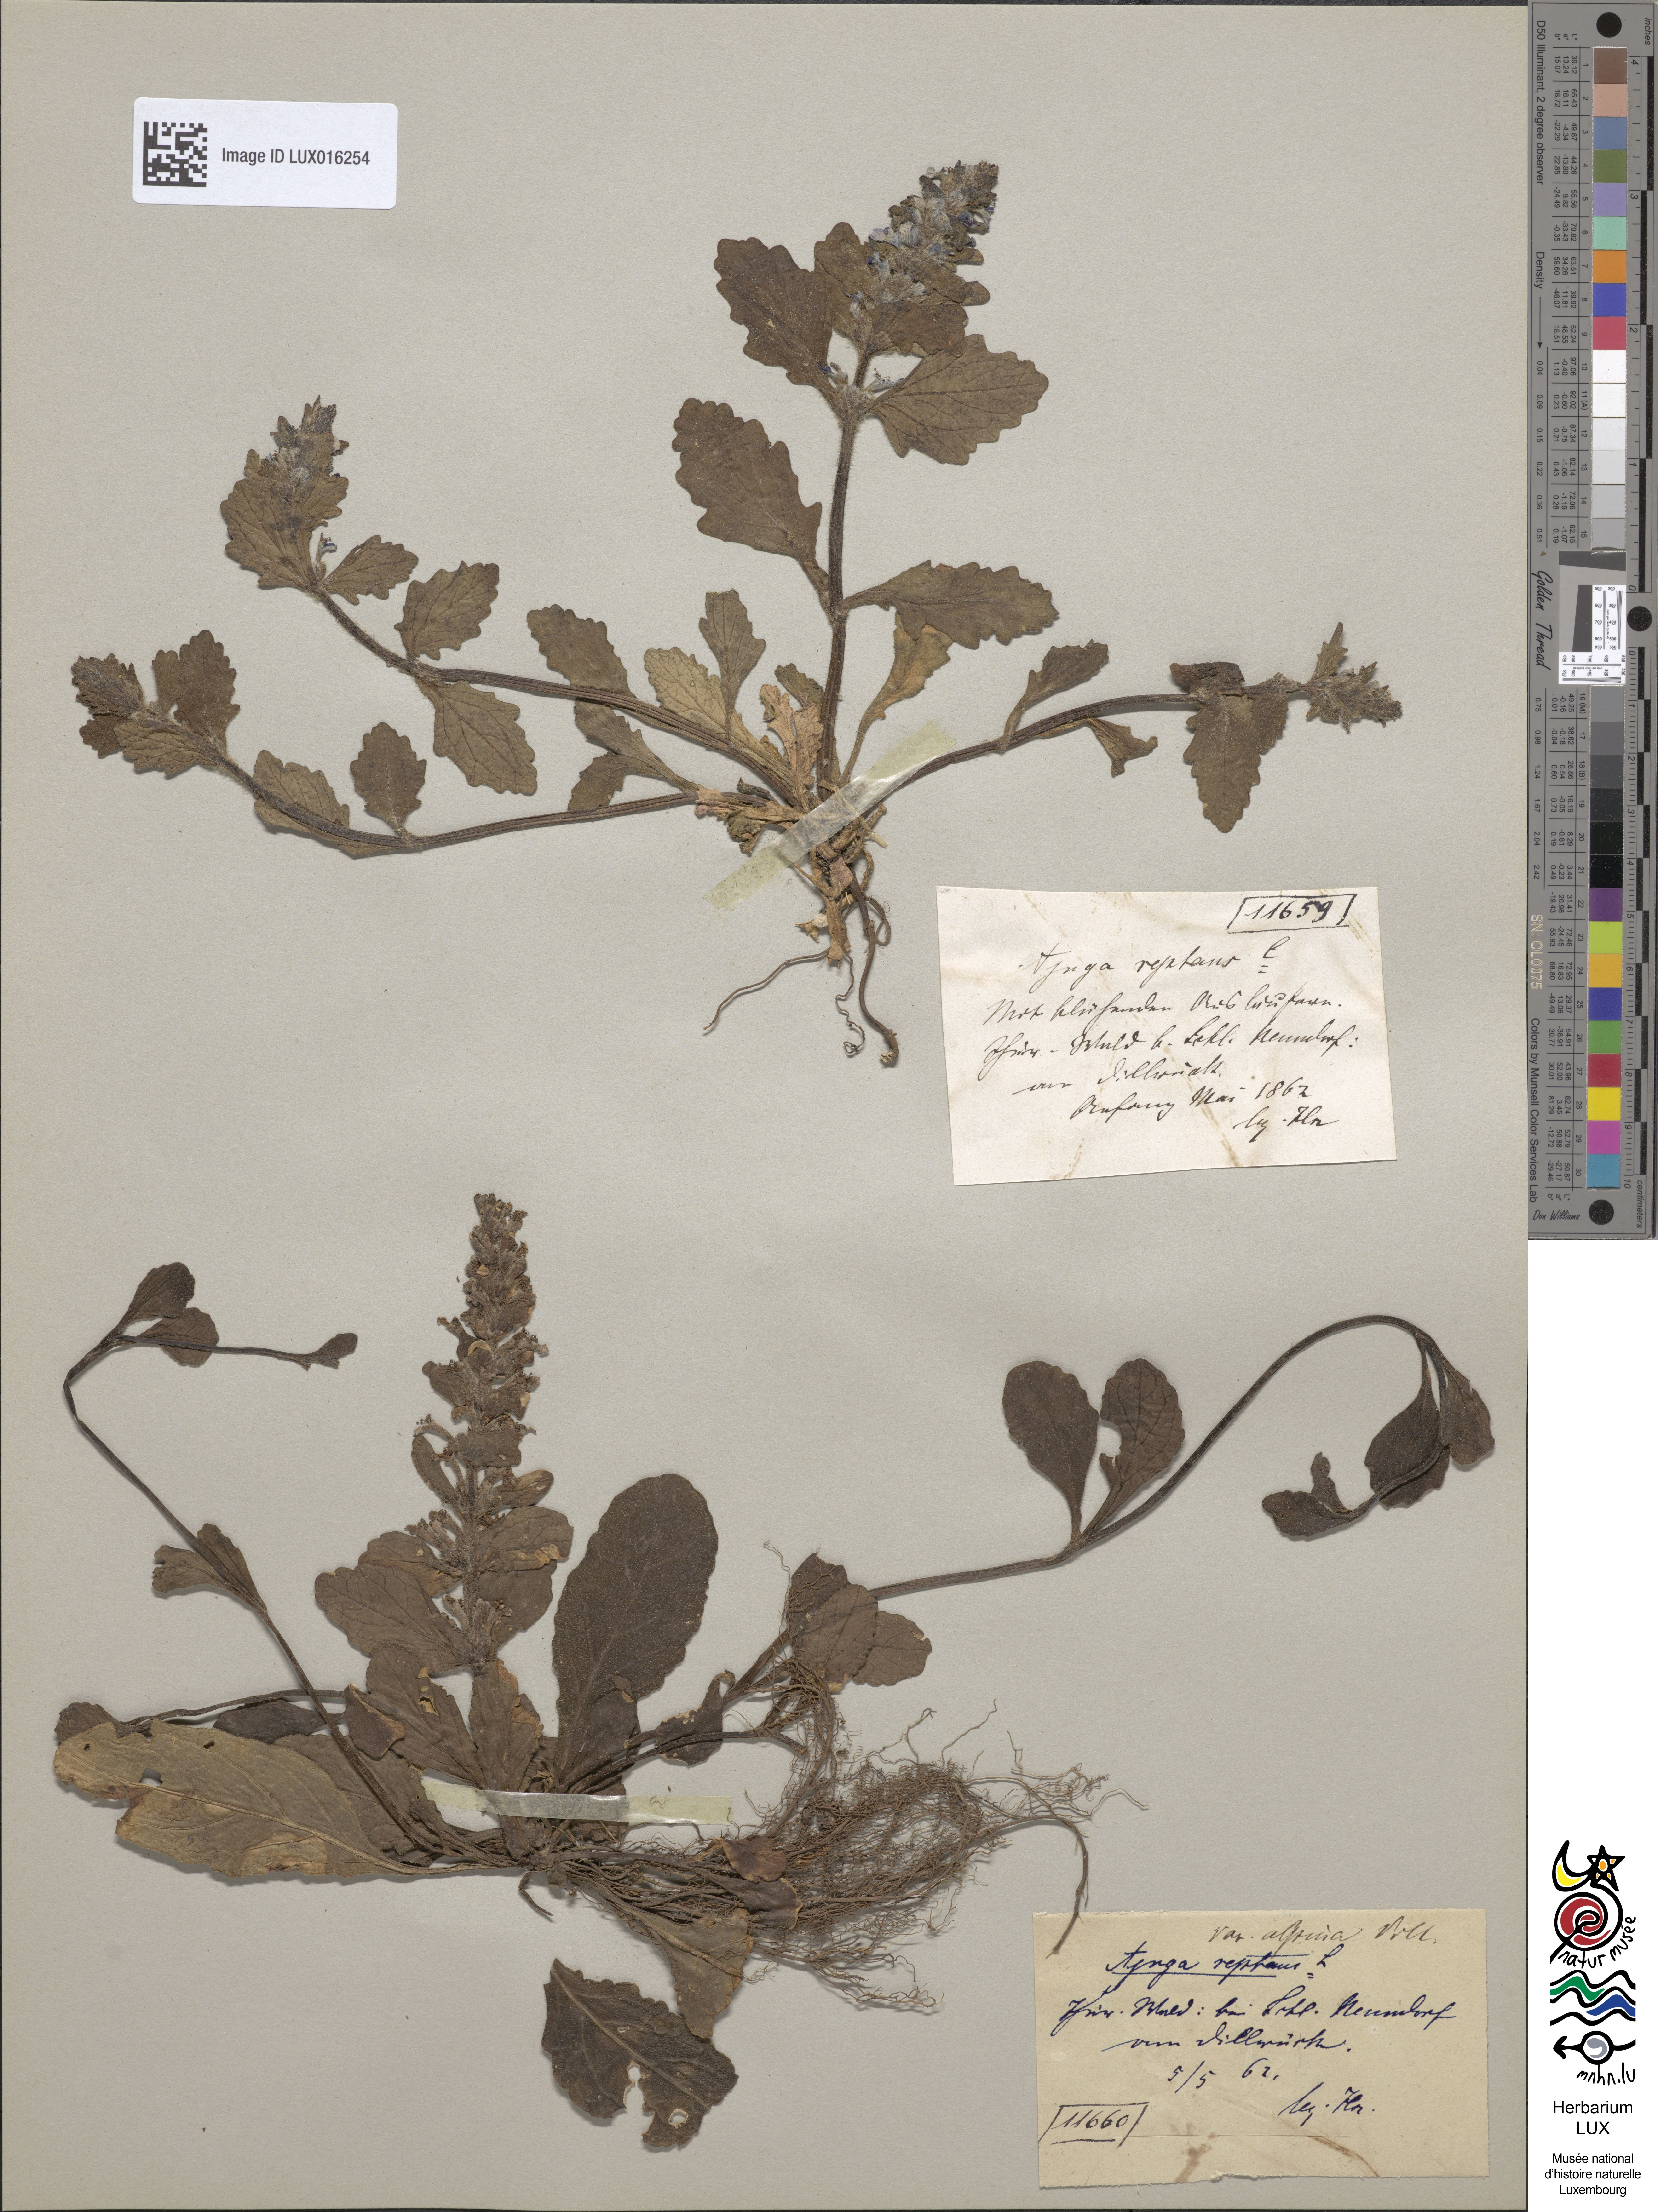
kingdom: Plantae
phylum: Tracheophyta
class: Magnoliopsida
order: Lamiales
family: Lamiaceae
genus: Ajuga
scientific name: Ajuga reptans
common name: Bugle
